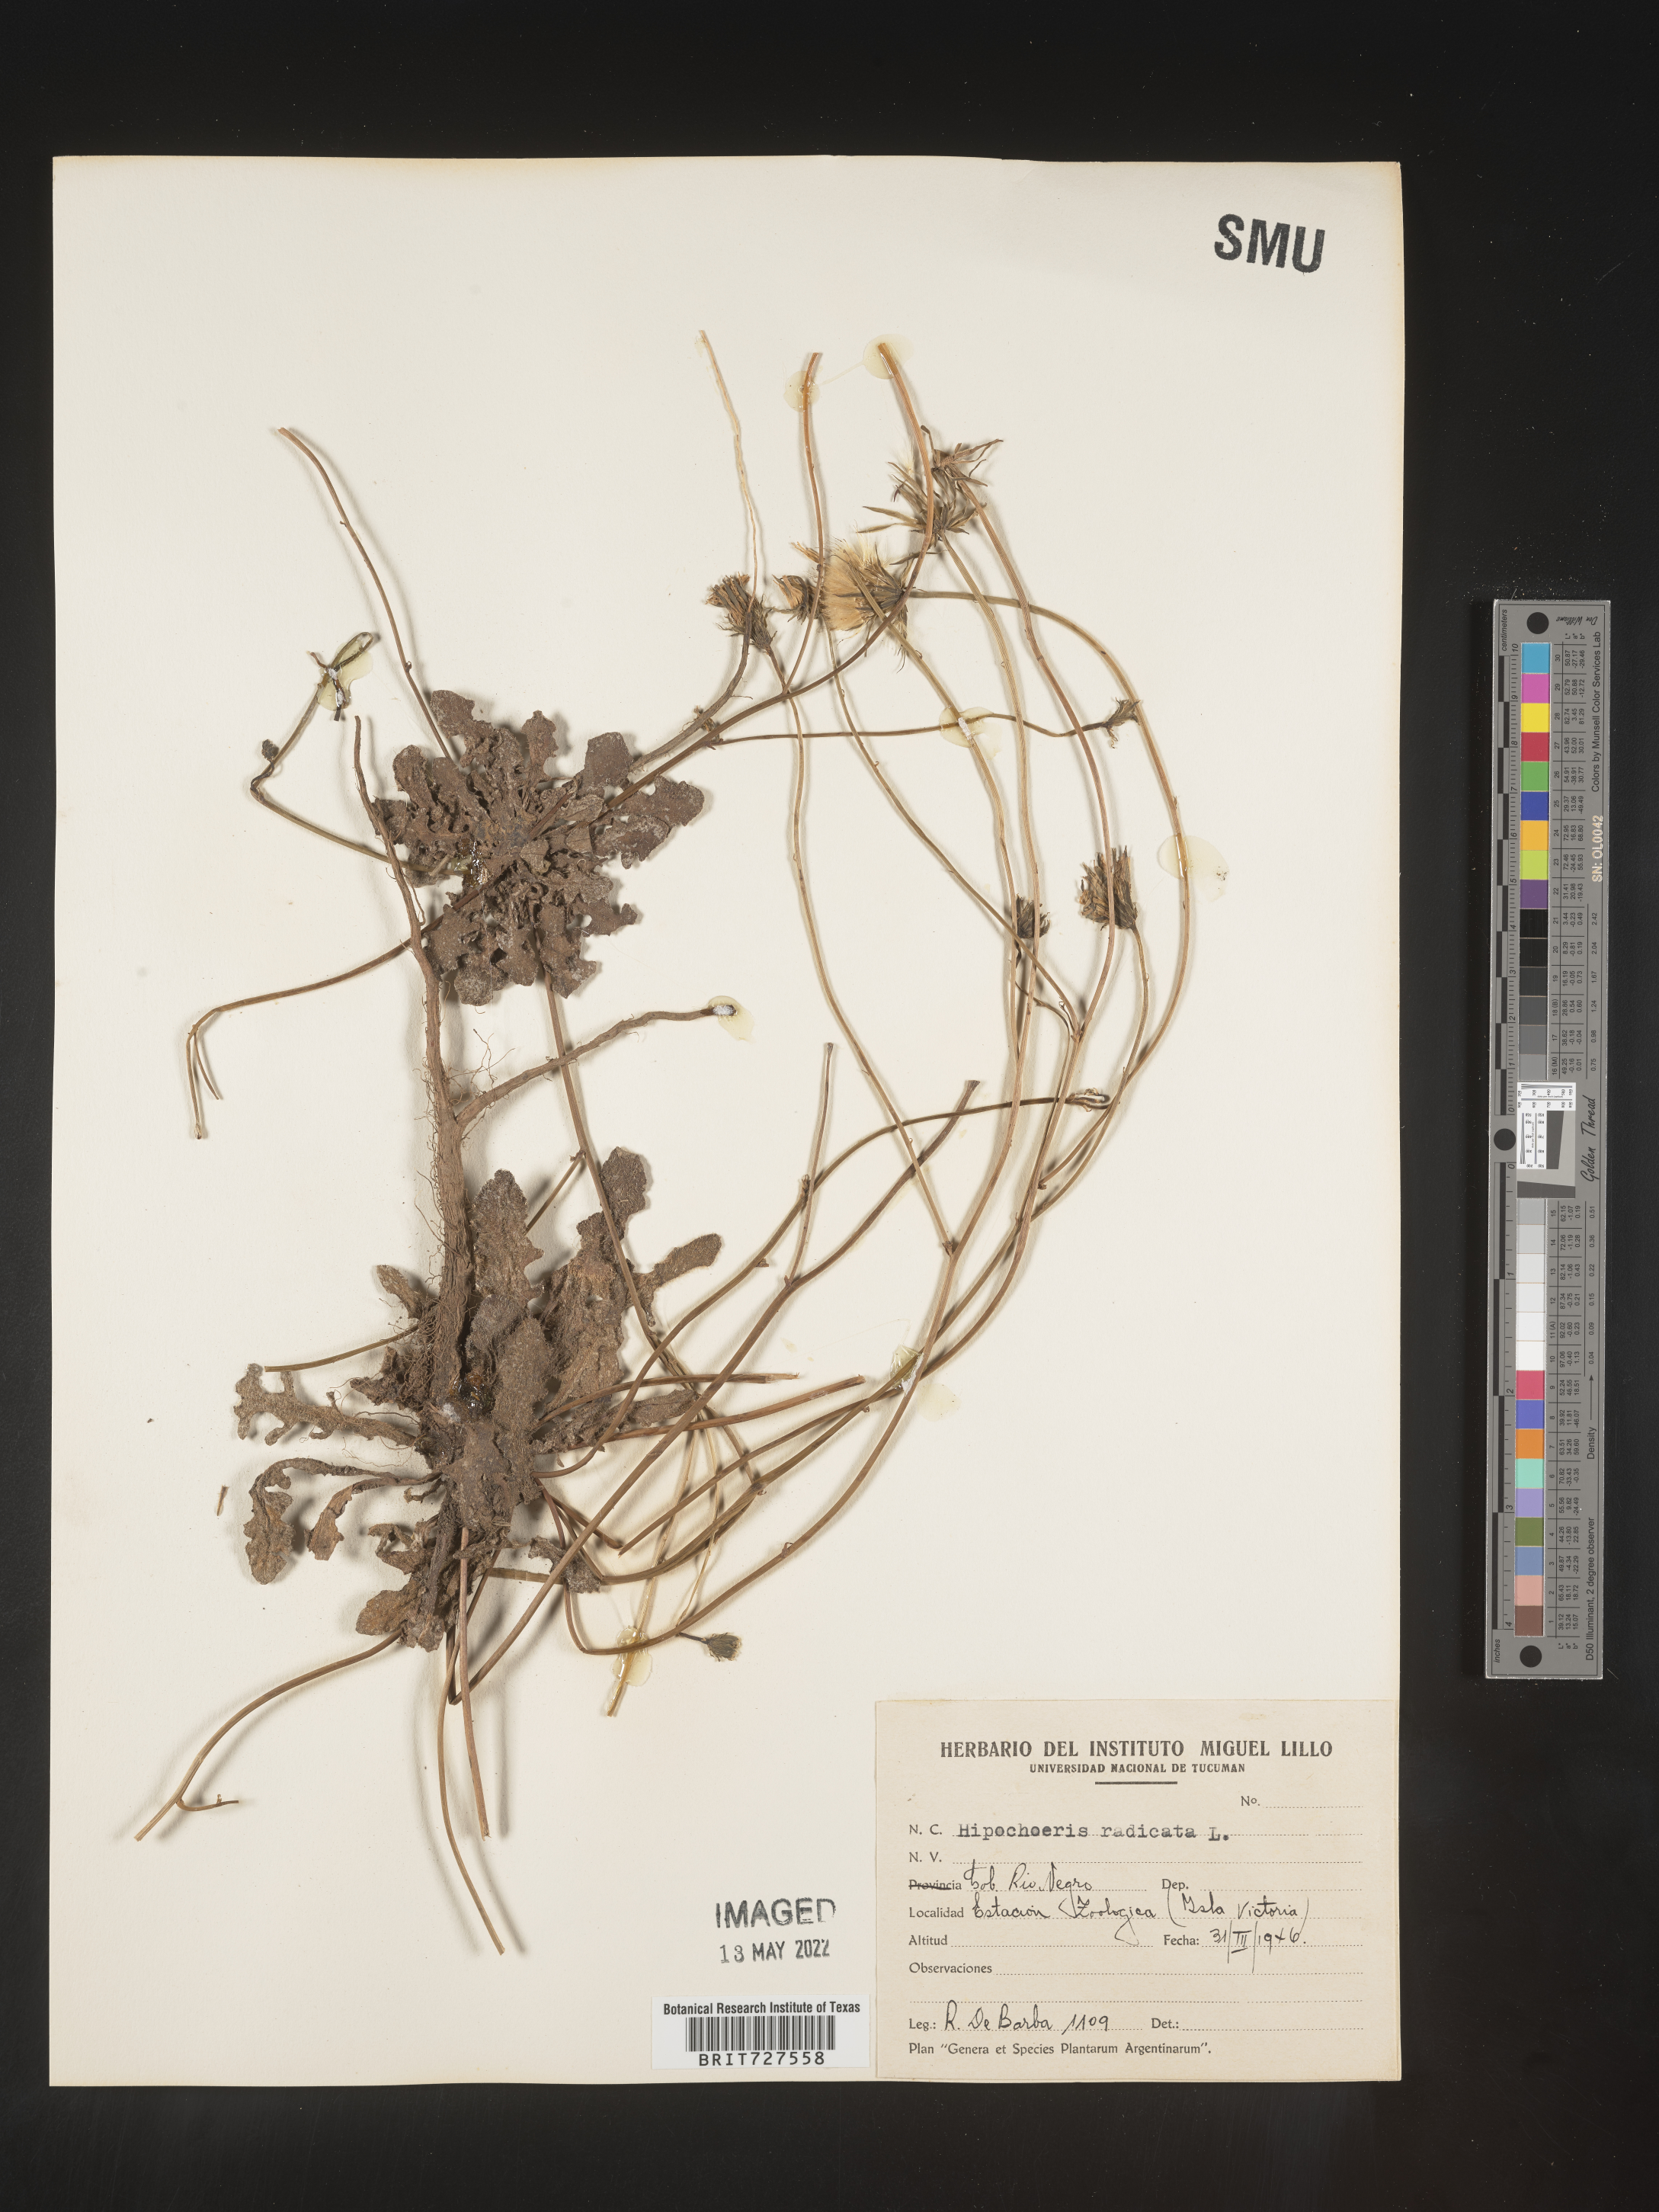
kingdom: Plantae
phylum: Tracheophyta
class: Magnoliopsida
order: Asterales
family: Asteraceae
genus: Hypochaeris
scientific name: Hypochaeris
